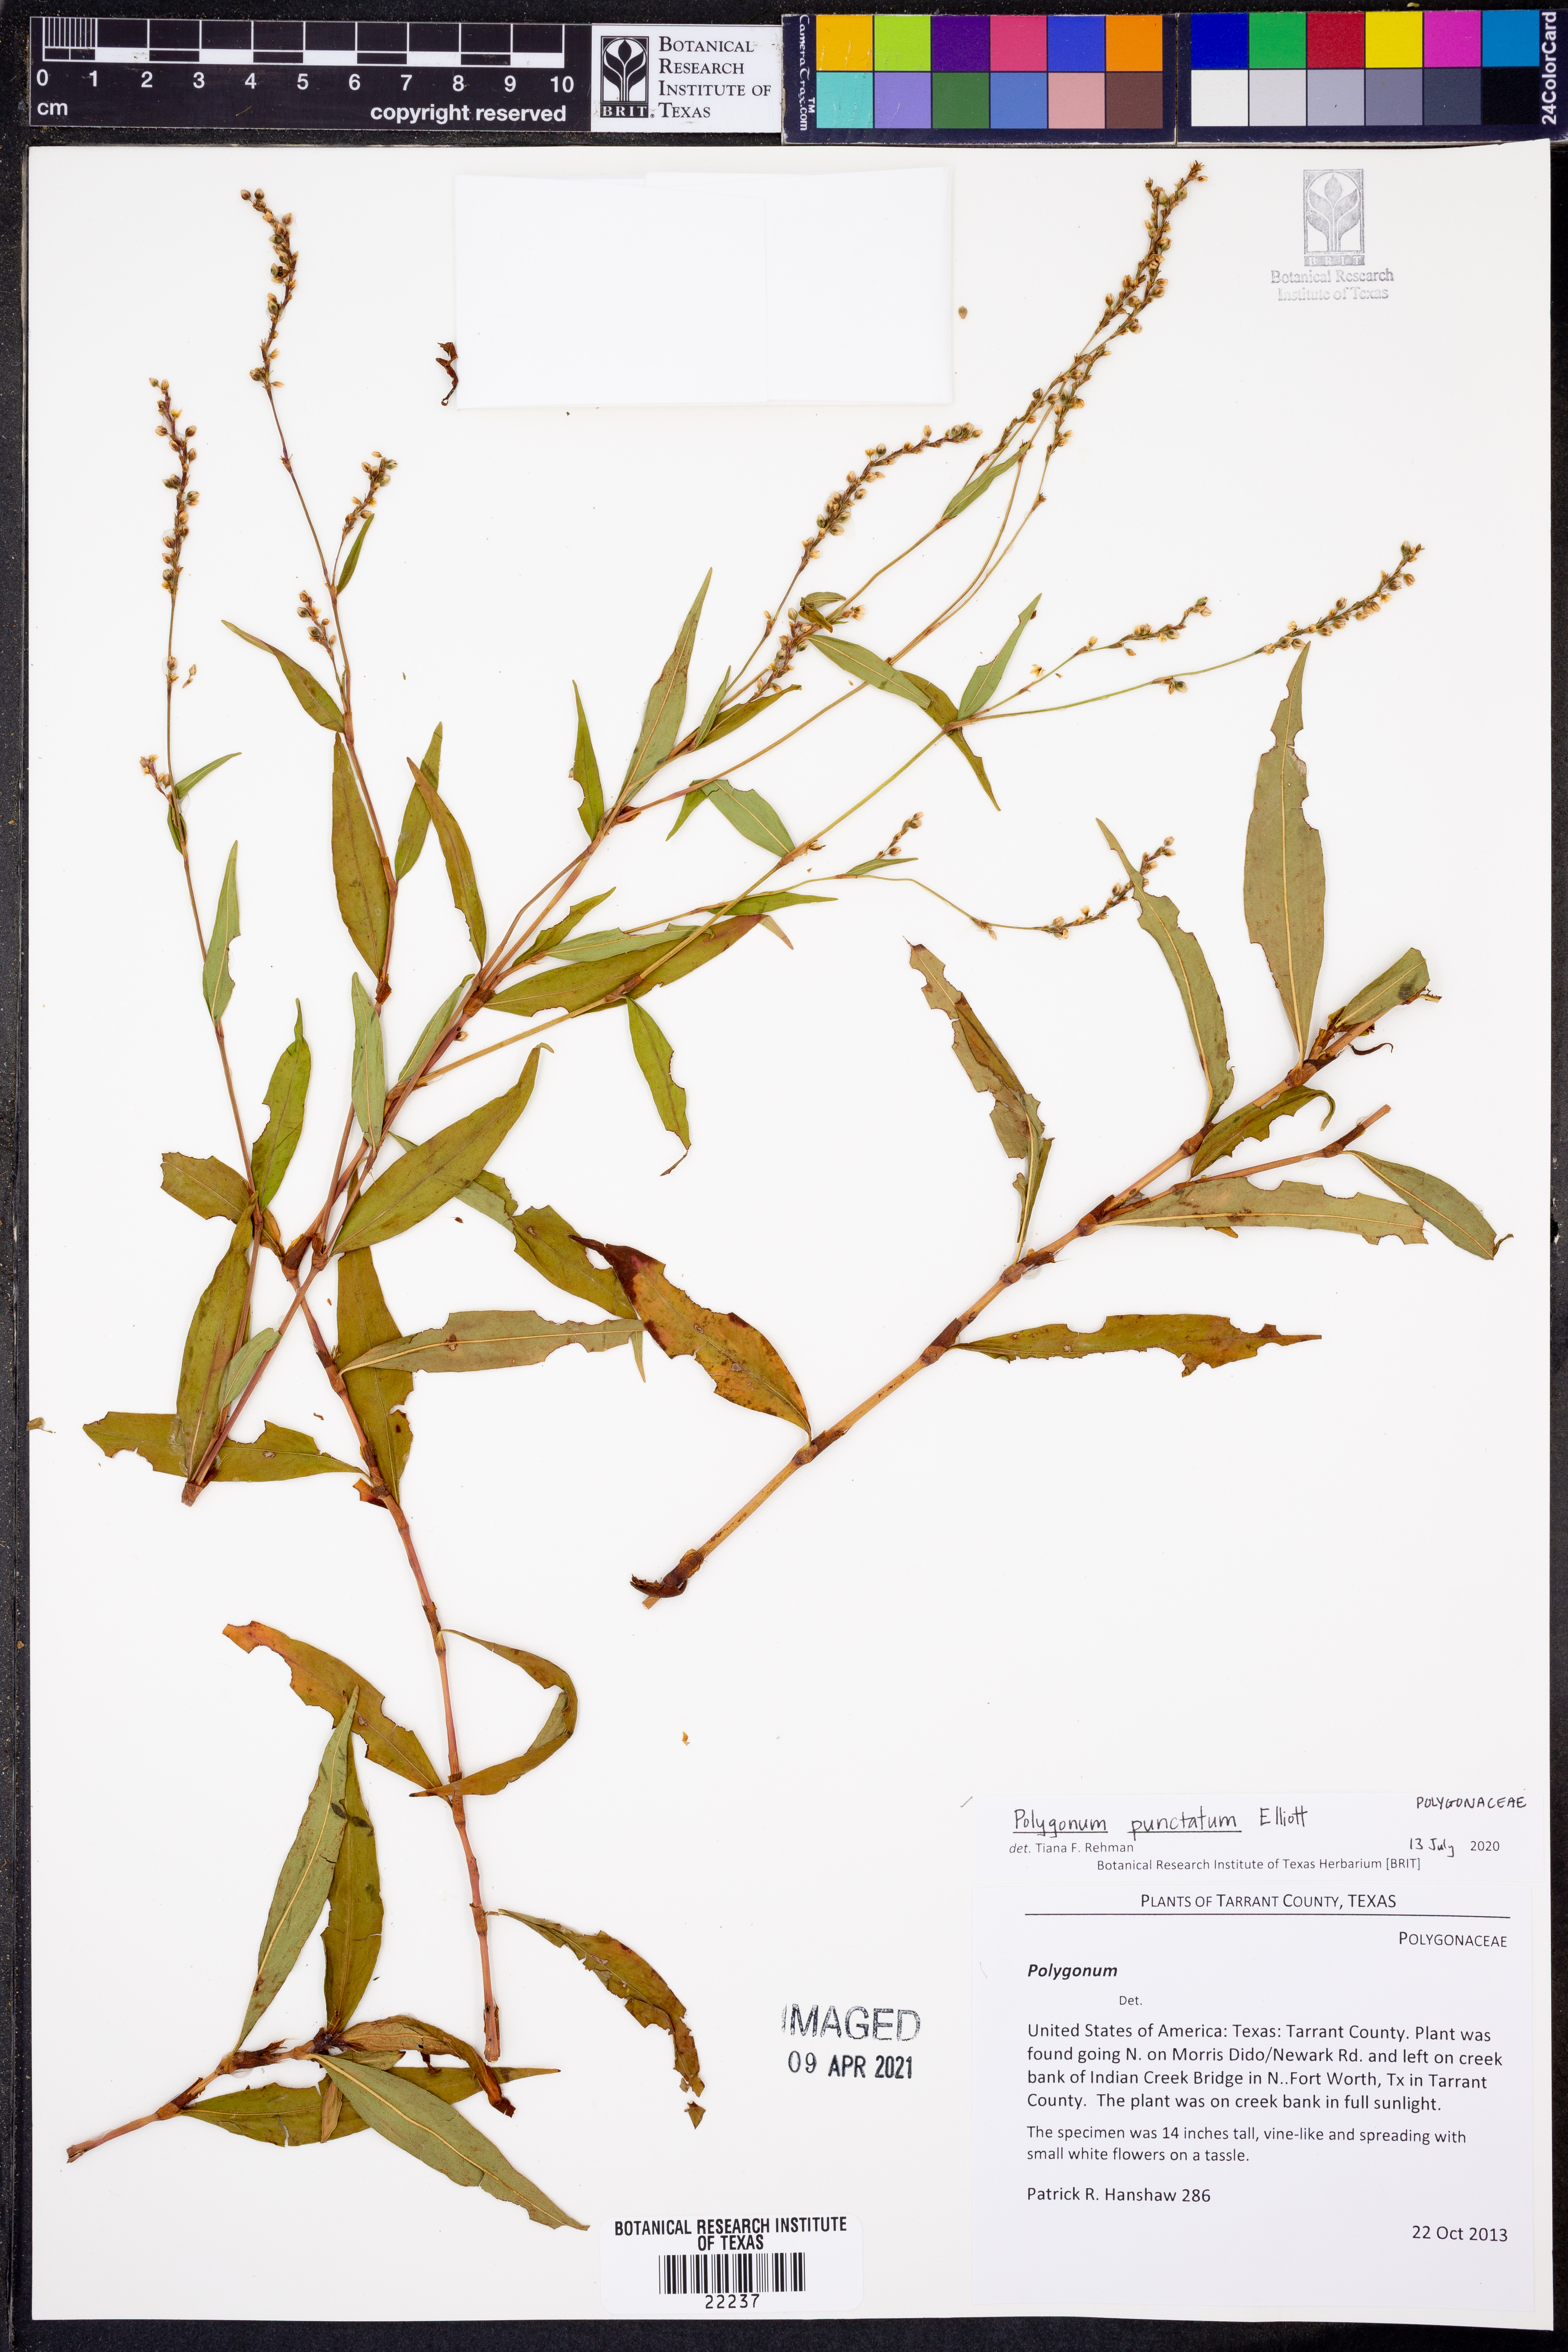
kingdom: Plantae
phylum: Tracheophyta
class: Magnoliopsida
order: Caryophyllales
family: Polygonaceae
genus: Persicaria
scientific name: Persicaria punctata
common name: Dotted smartweed
